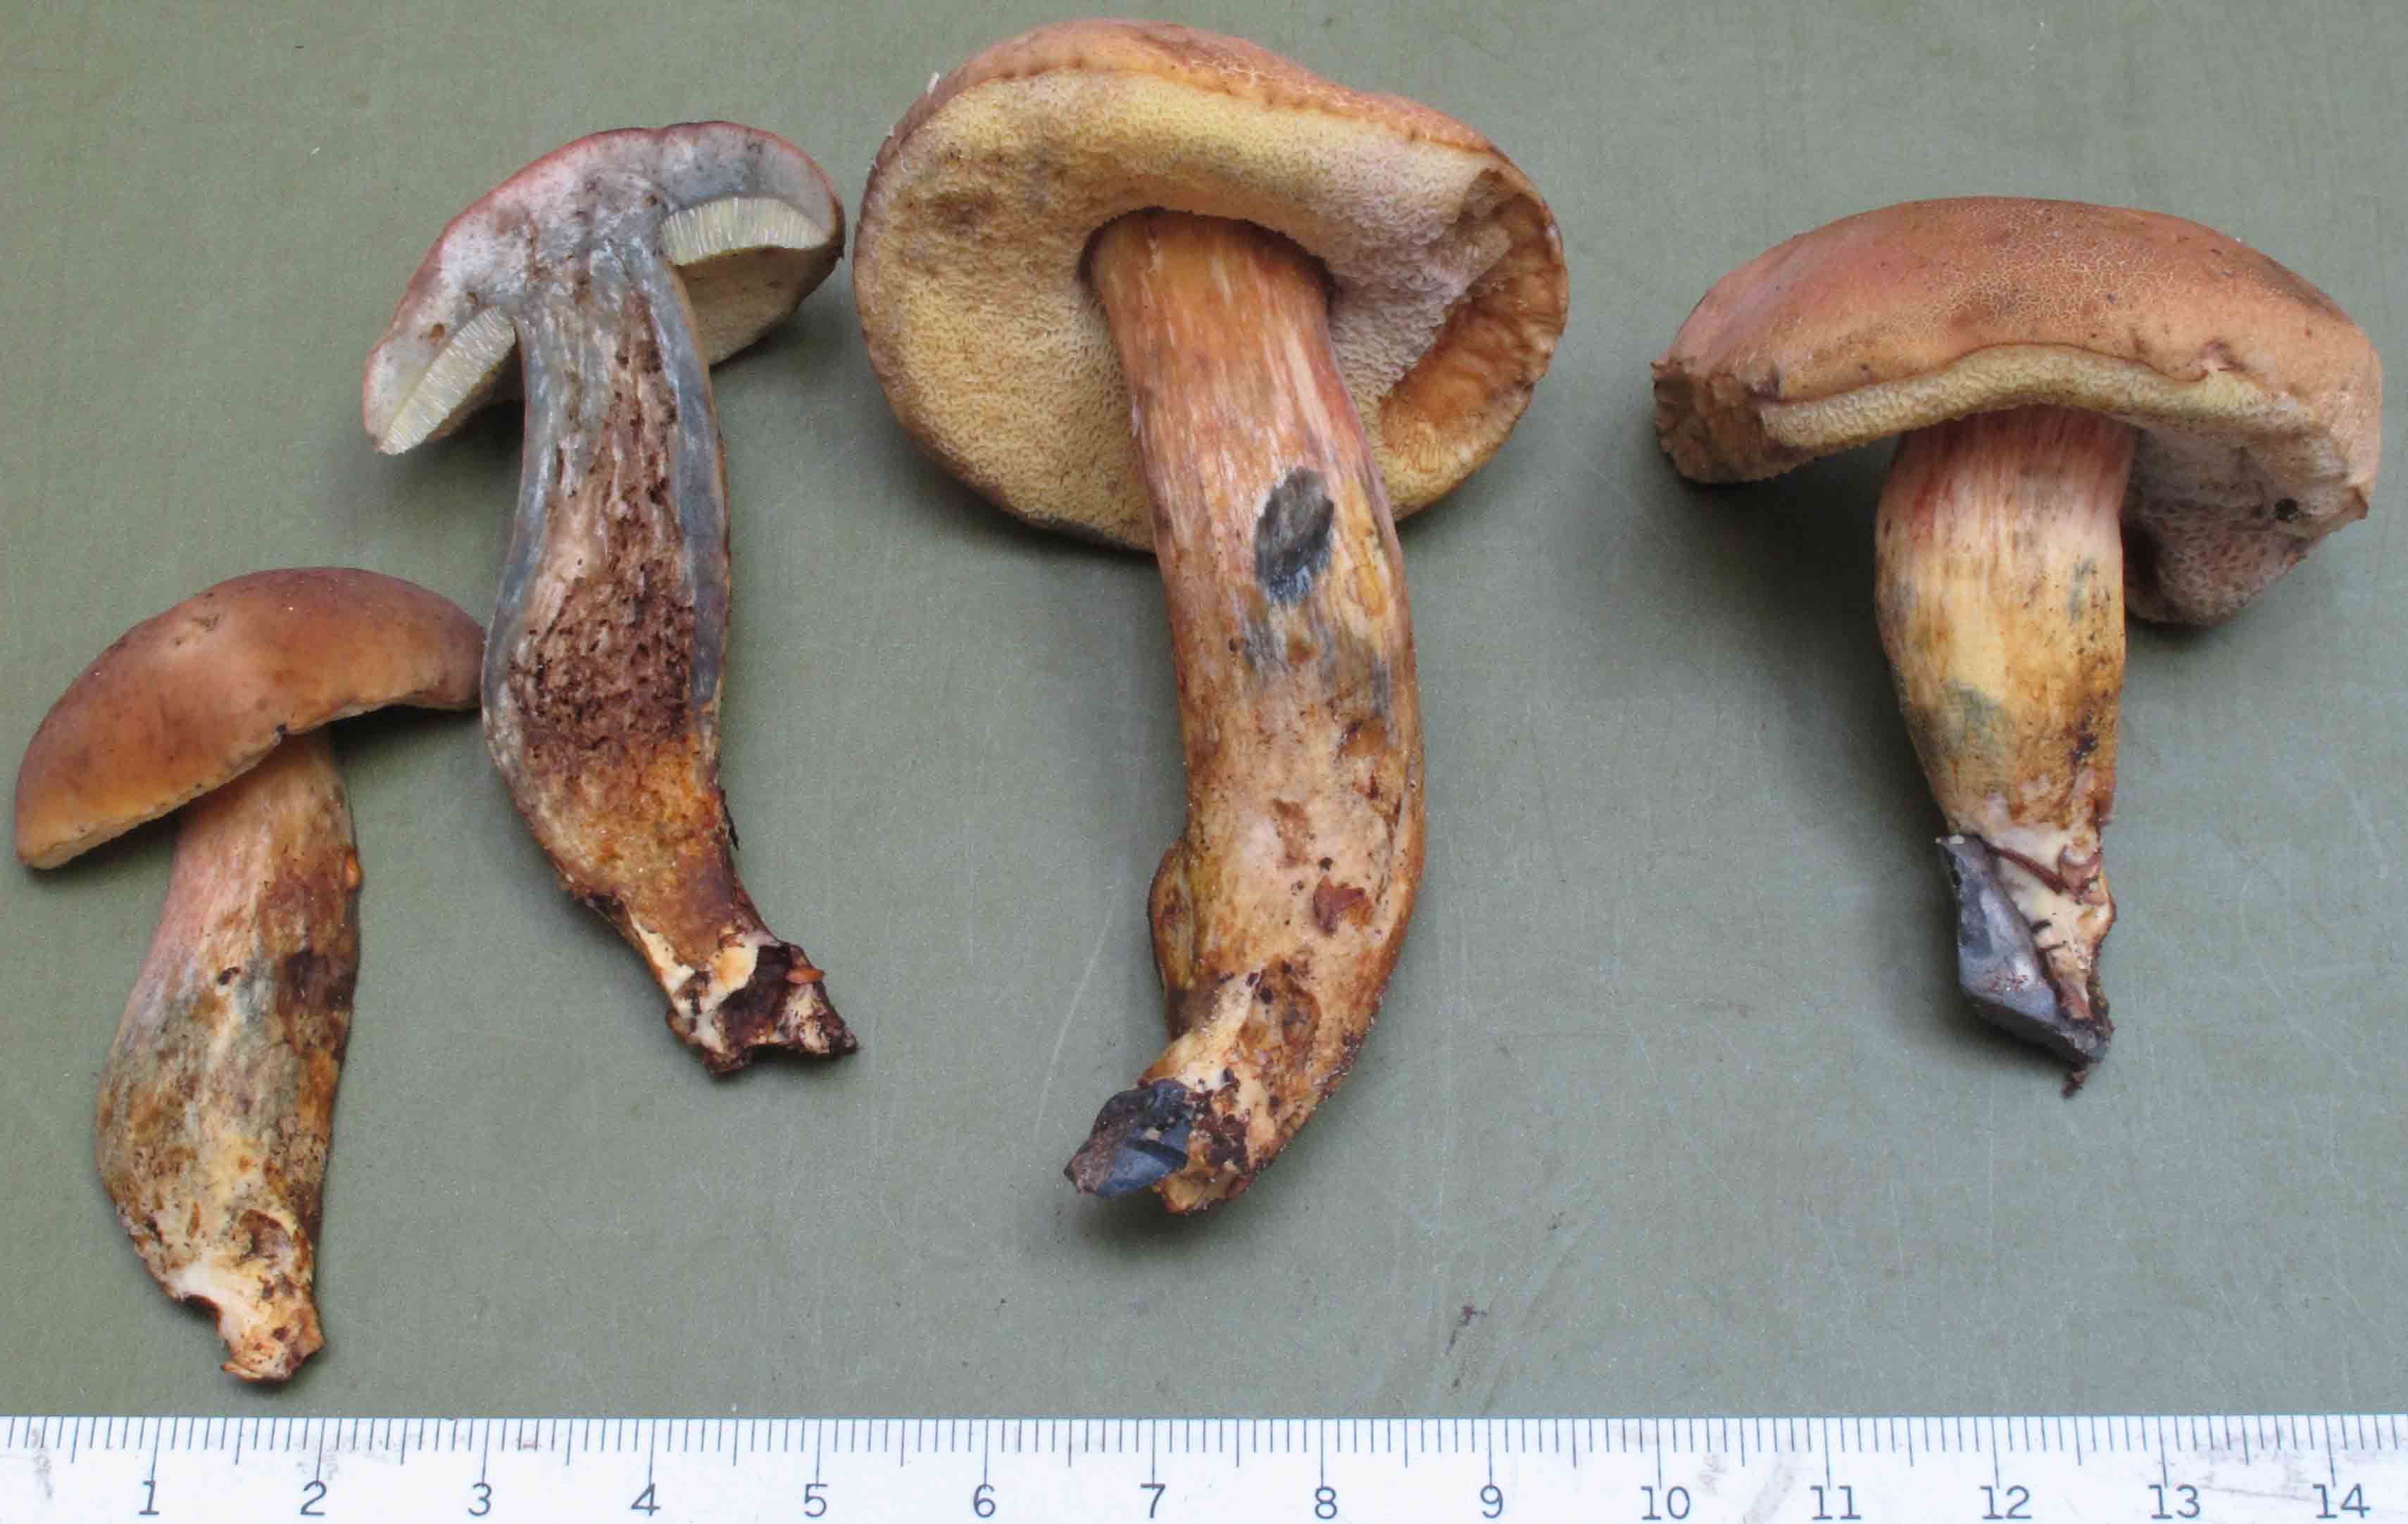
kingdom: Fungi
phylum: Basidiomycota
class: Agaricomycetes
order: Boletales
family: Boletaceae
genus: Hortiboletus
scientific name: Hortiboletus bubalinus
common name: aurora-rørhat
